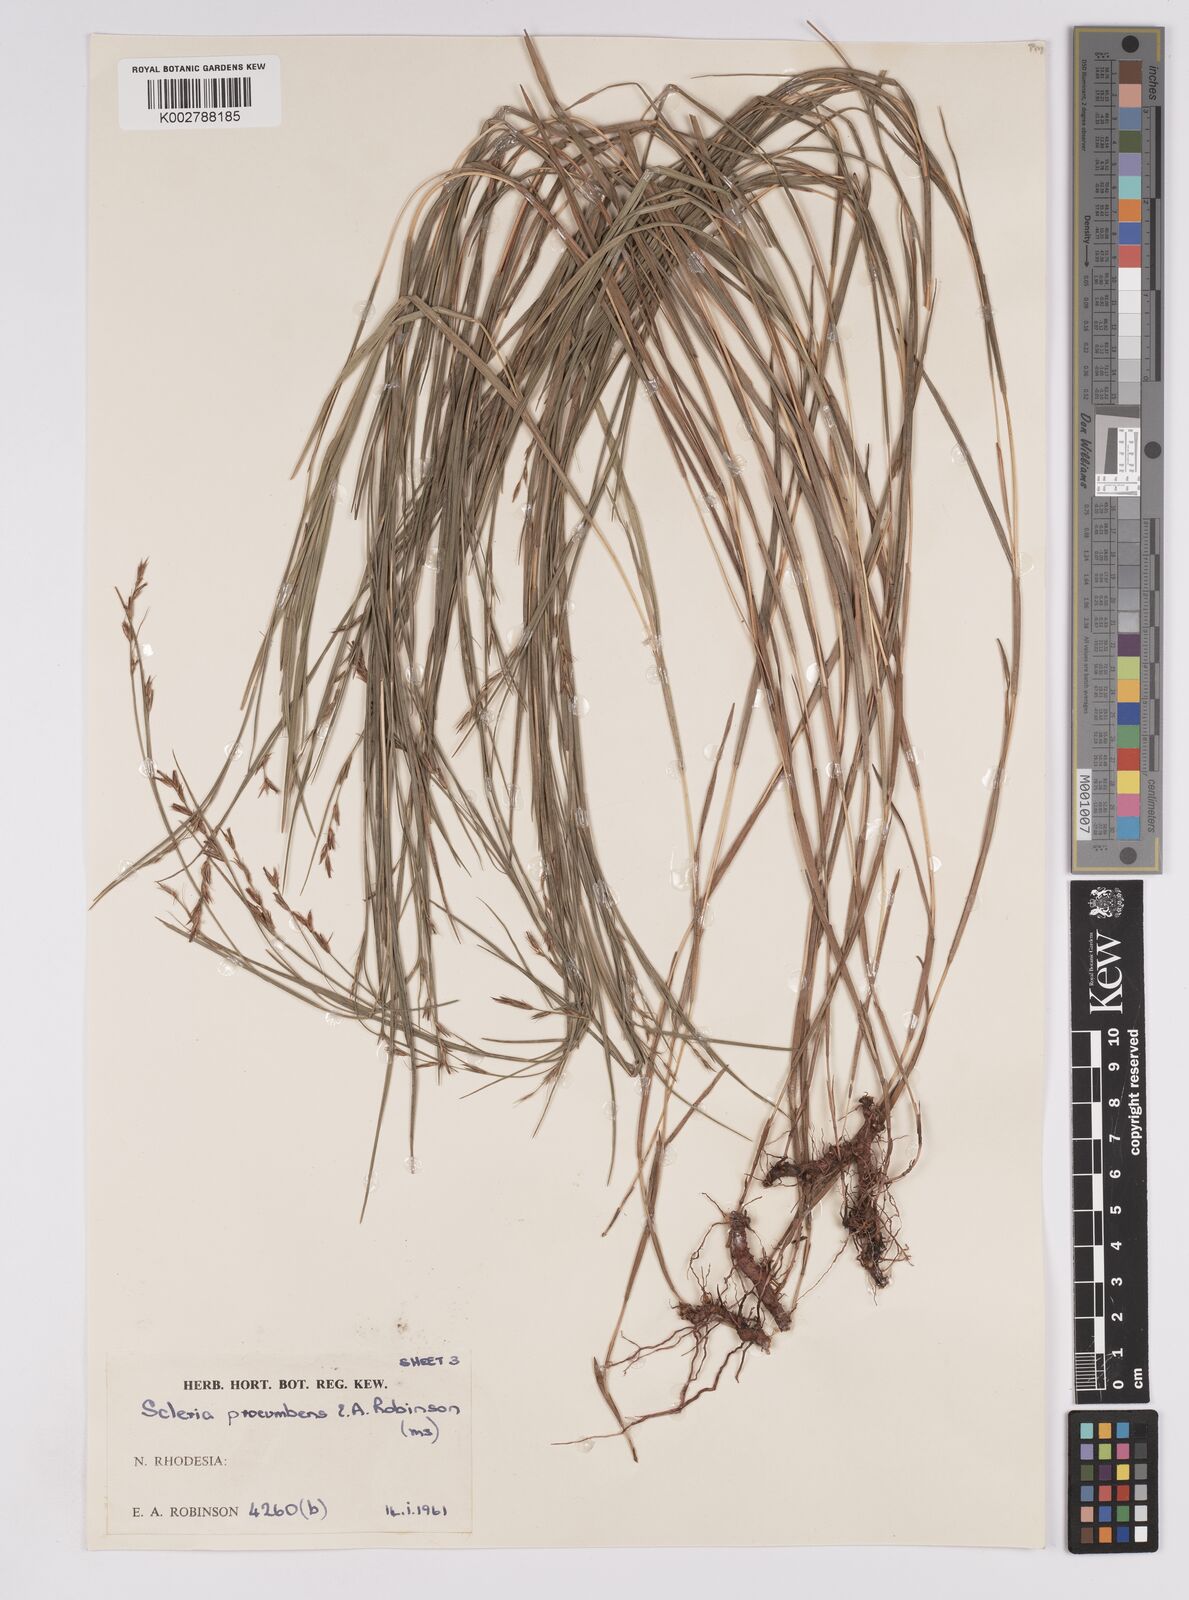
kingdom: Plantae
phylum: Tracheophyta
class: Liliopsida
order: Poales
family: Cyperaceae
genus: Scleria
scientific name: Scleria procumbens
